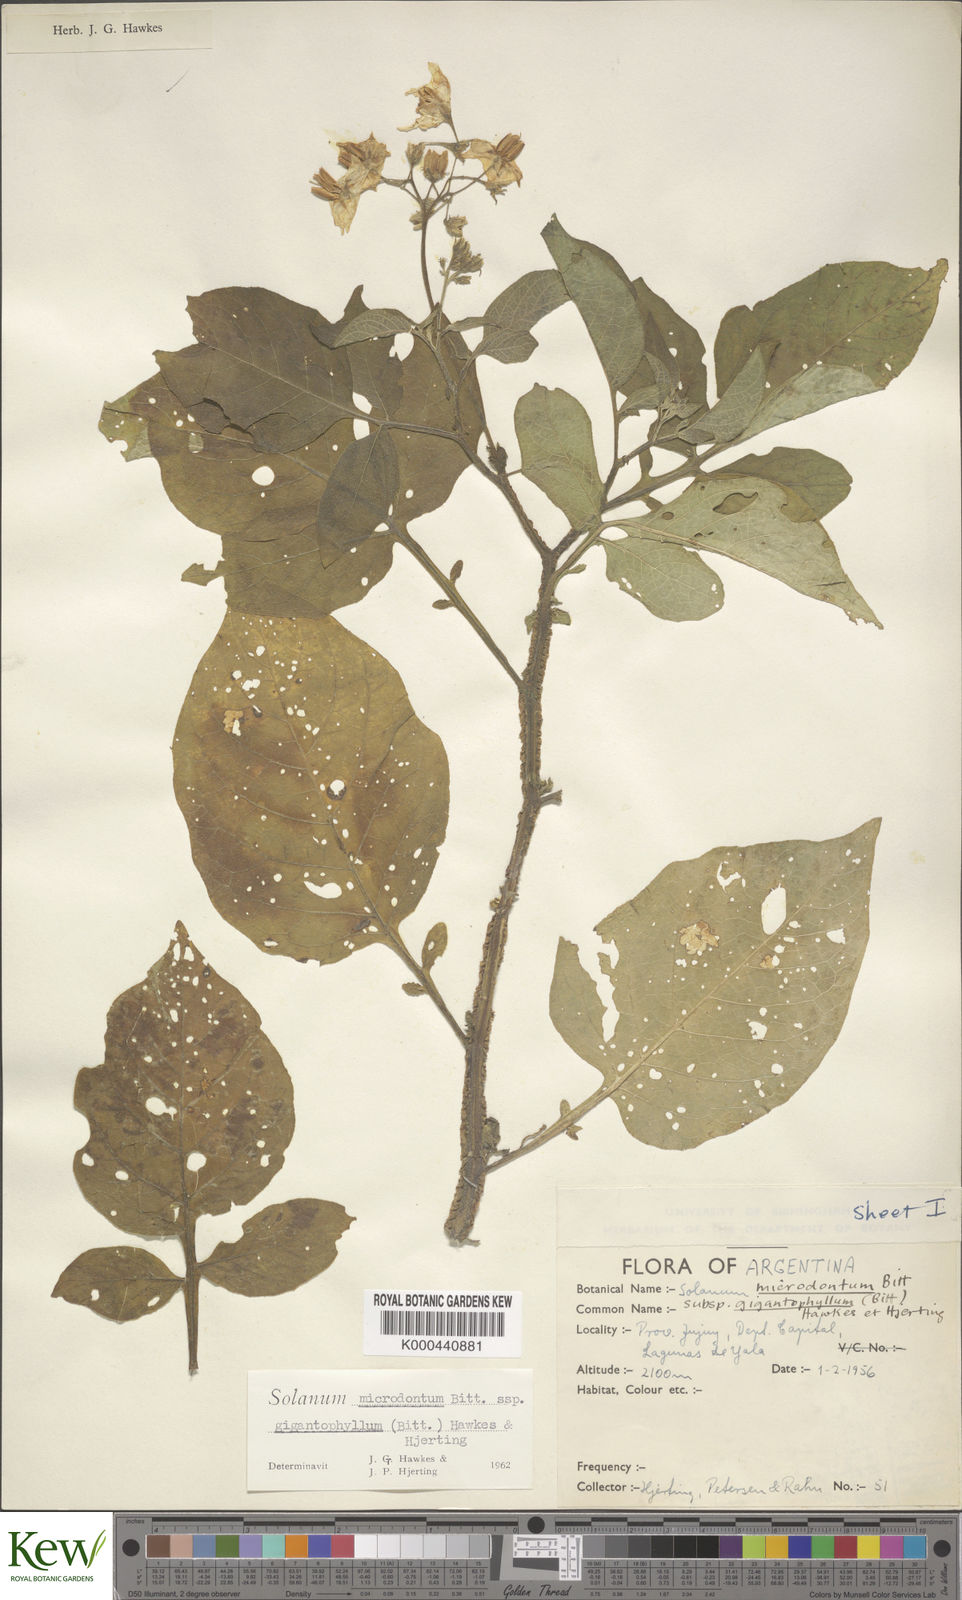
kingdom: Plantae
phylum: Tracheophyta
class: Magnoliopsida
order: Solanales
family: Solanaceae
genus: Solanum
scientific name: Solanum microdontum
